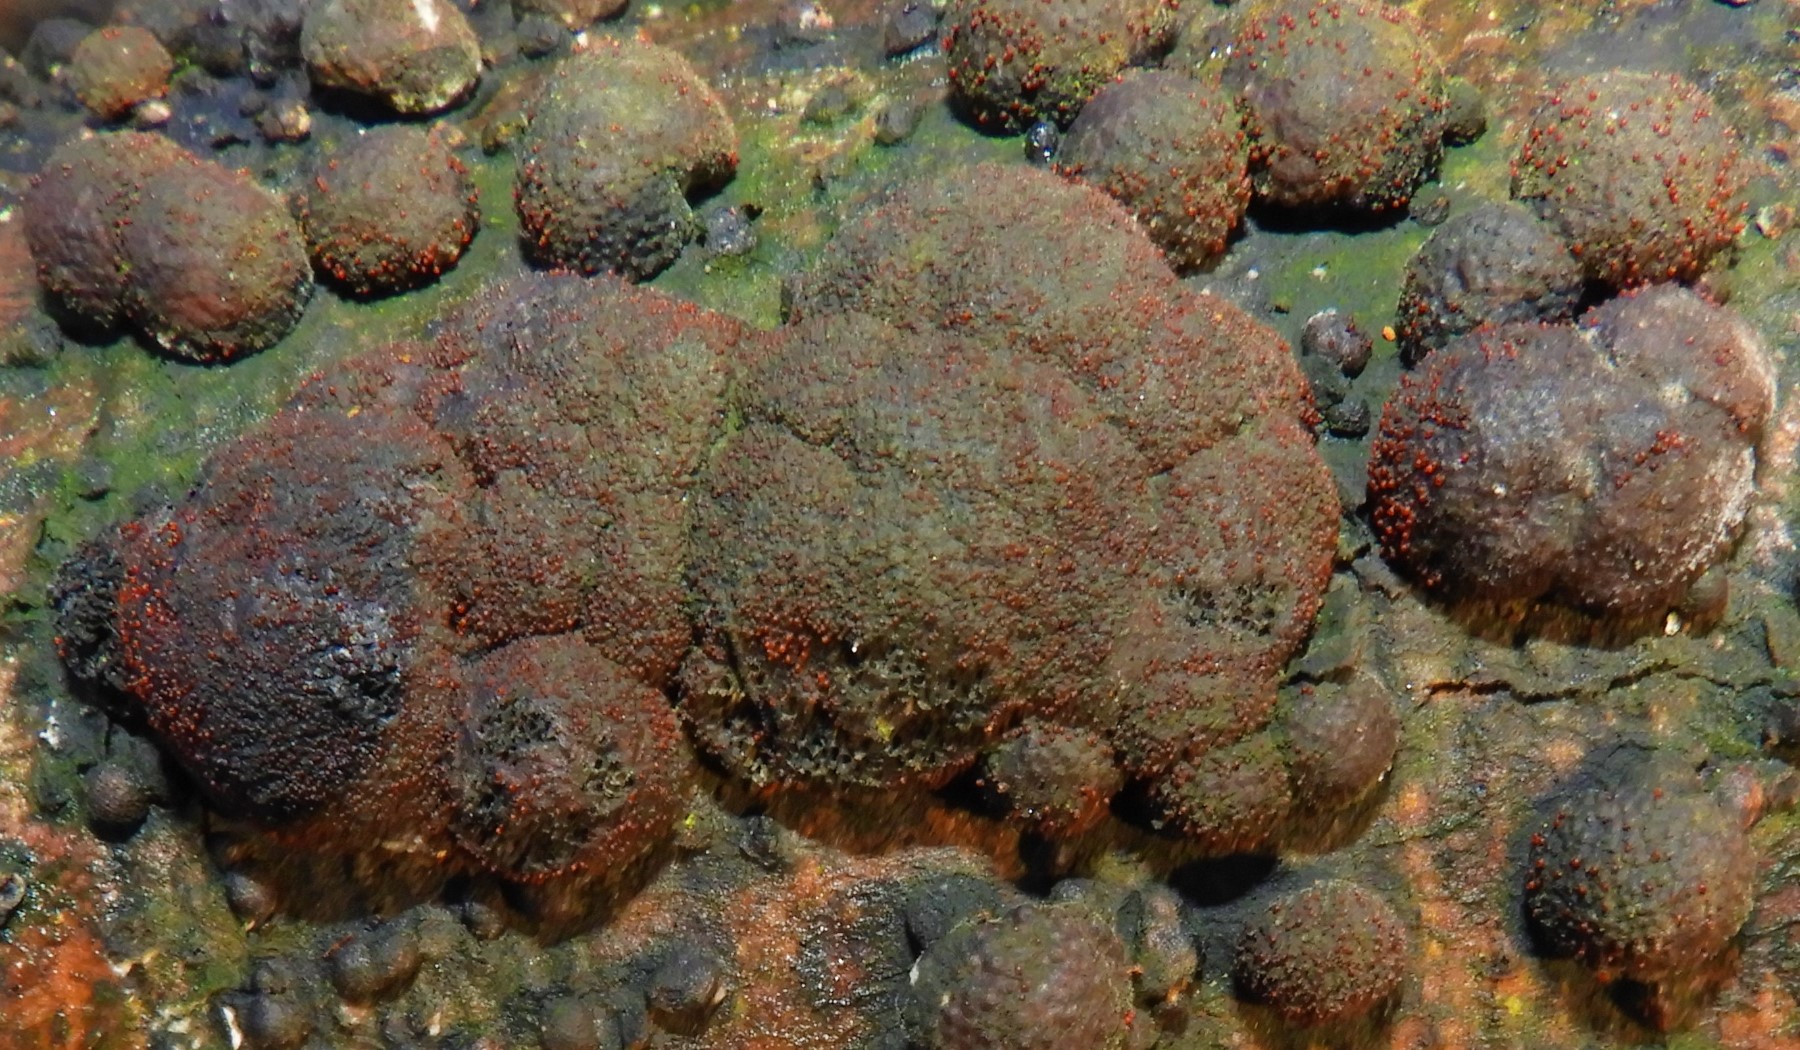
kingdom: Fungi
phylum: Ascomycota
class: Sordariomycetes
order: Hypocreales
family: Nectriaceae
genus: Cosmospora
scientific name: Cosmospora arxii
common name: kuljordbær-cinnobersvamp
